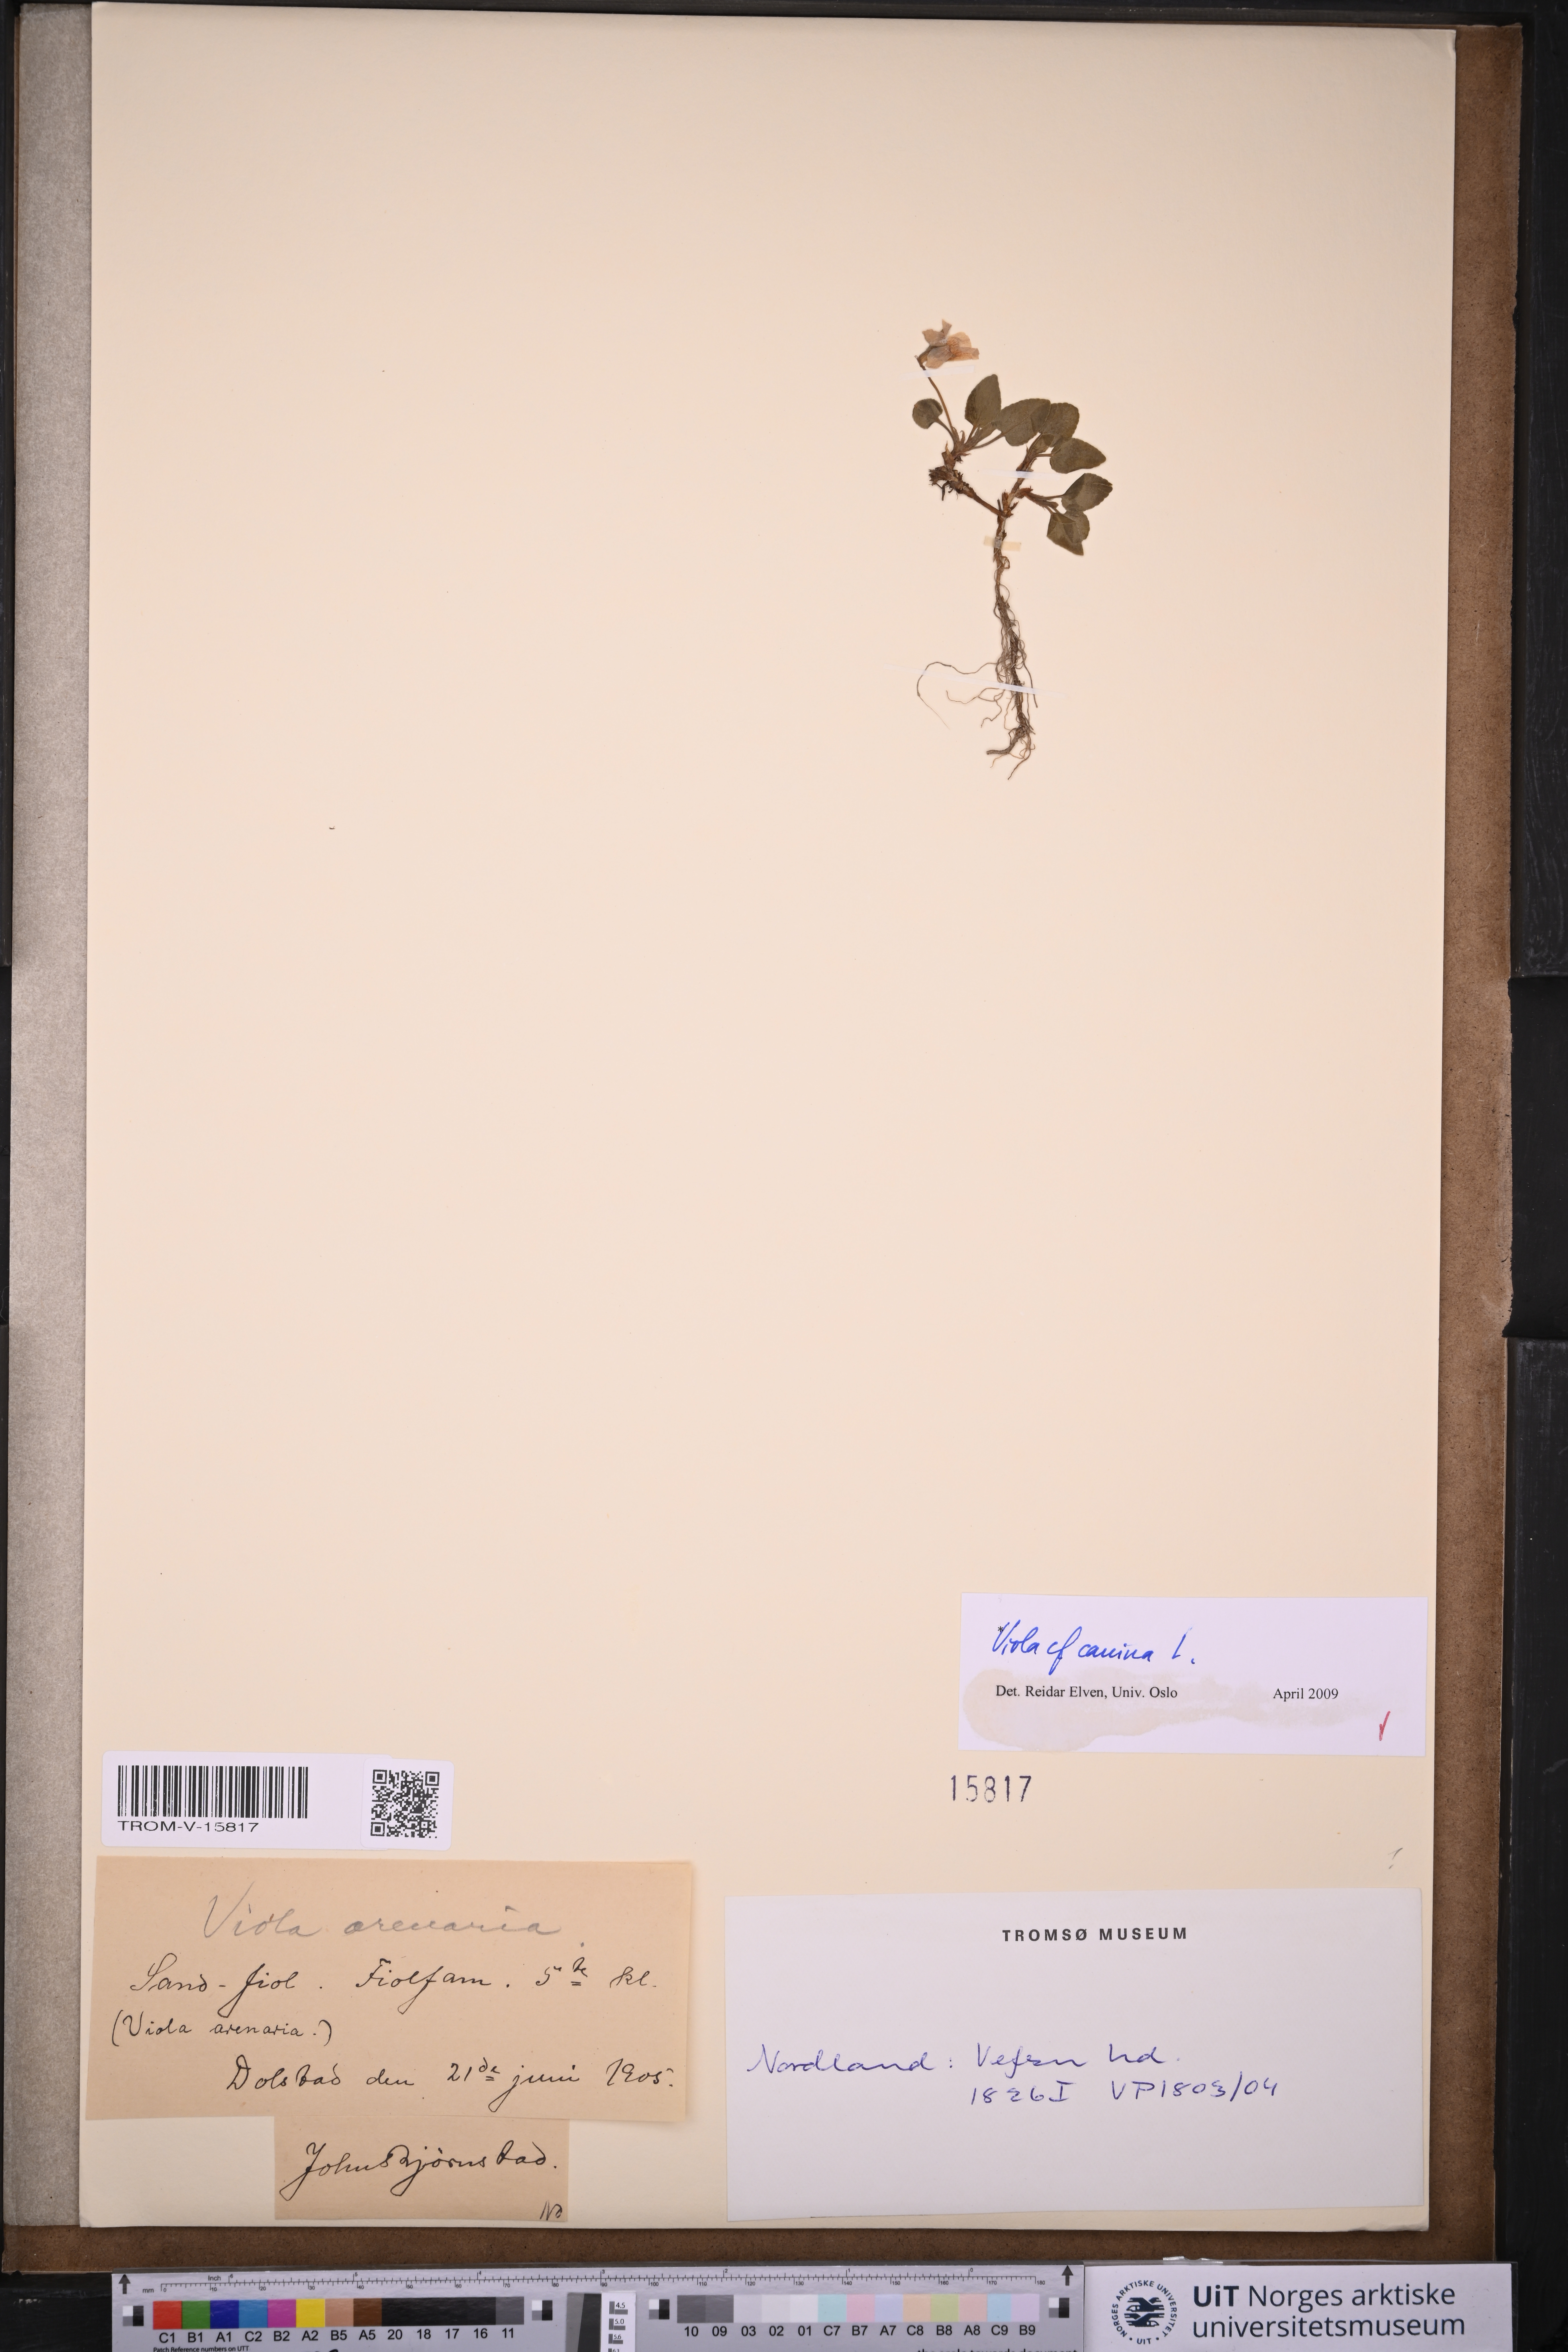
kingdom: Plantae
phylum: Tracheophyta
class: Magnoliopsida
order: Malpighiales
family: Violaceae
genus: Viola
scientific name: Viola canina
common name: Heath dog-violet
